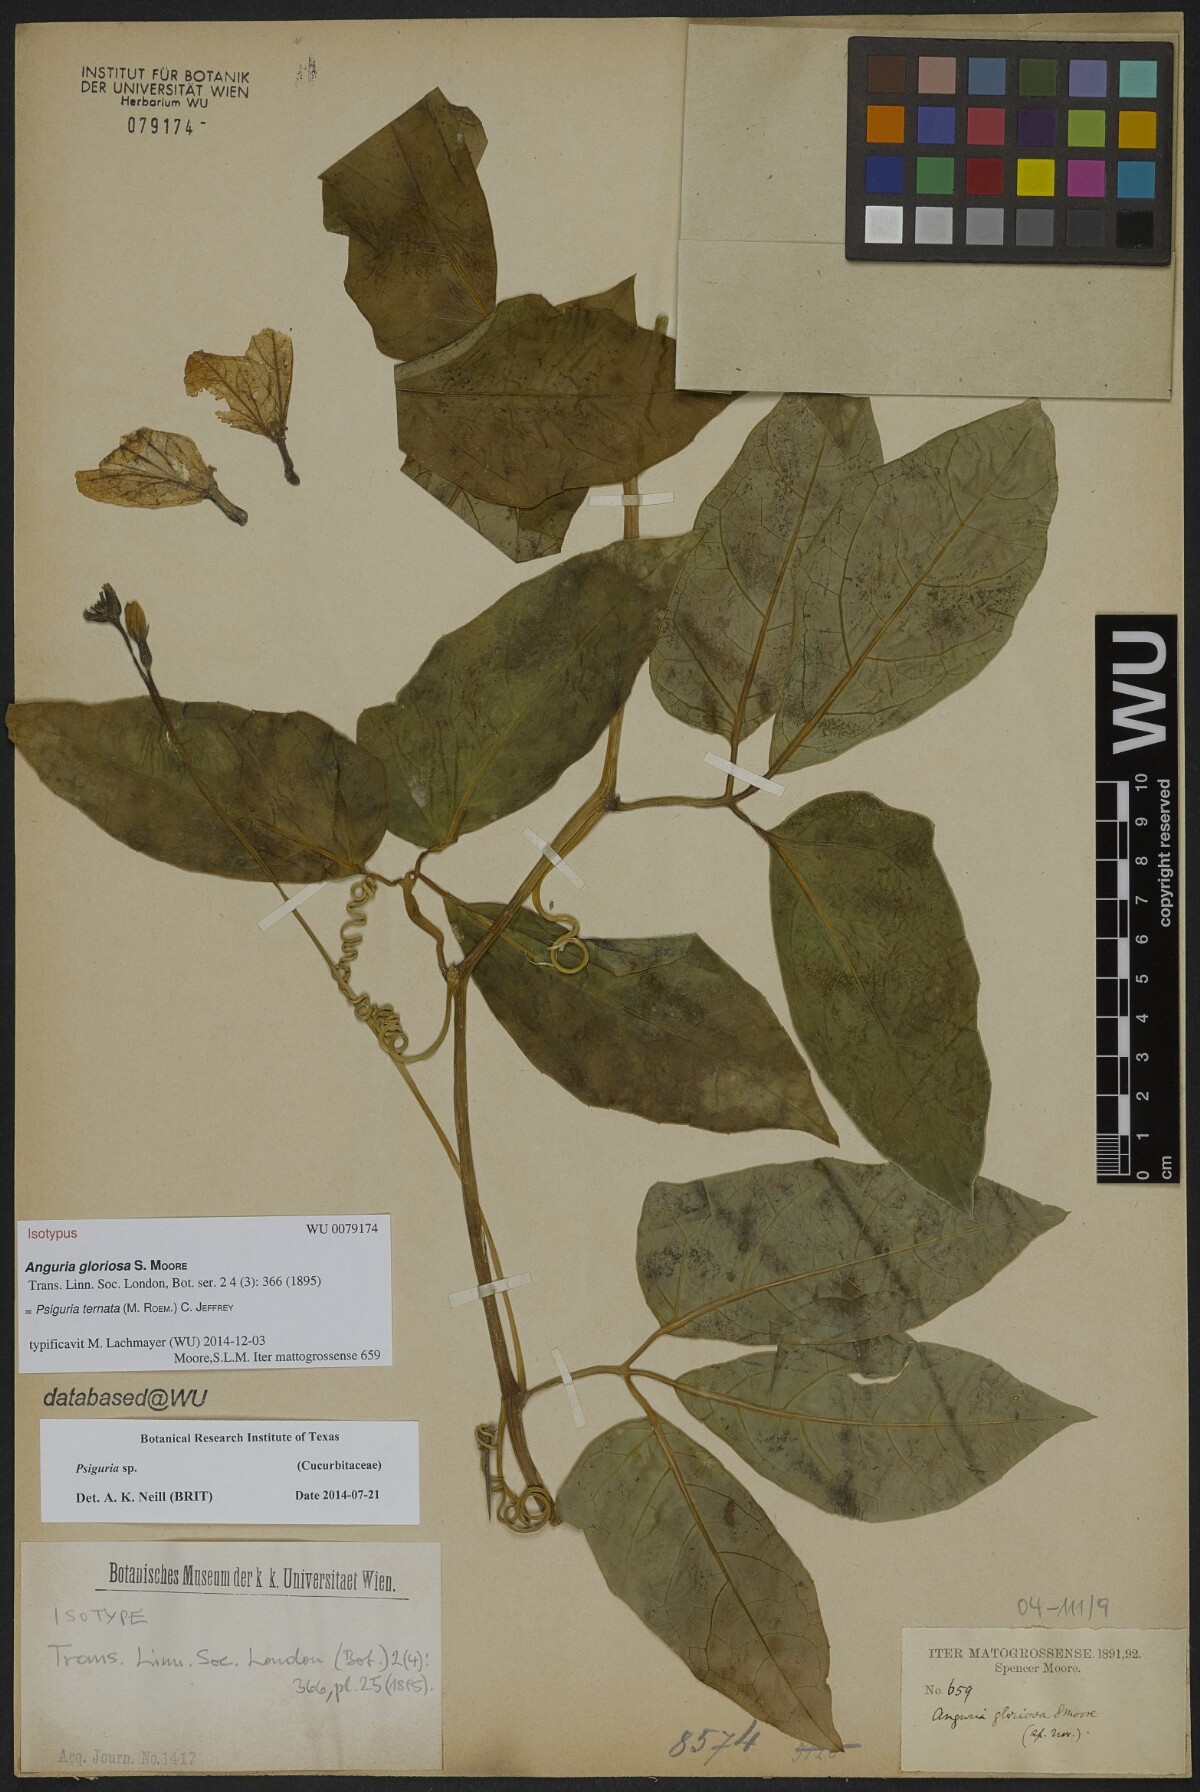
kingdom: Plantae
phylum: Tracheophyta
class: Magnoliopsida
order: Cucurbitales
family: Cucurbitaceae
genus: Psiguria
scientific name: Psiguria ternata
